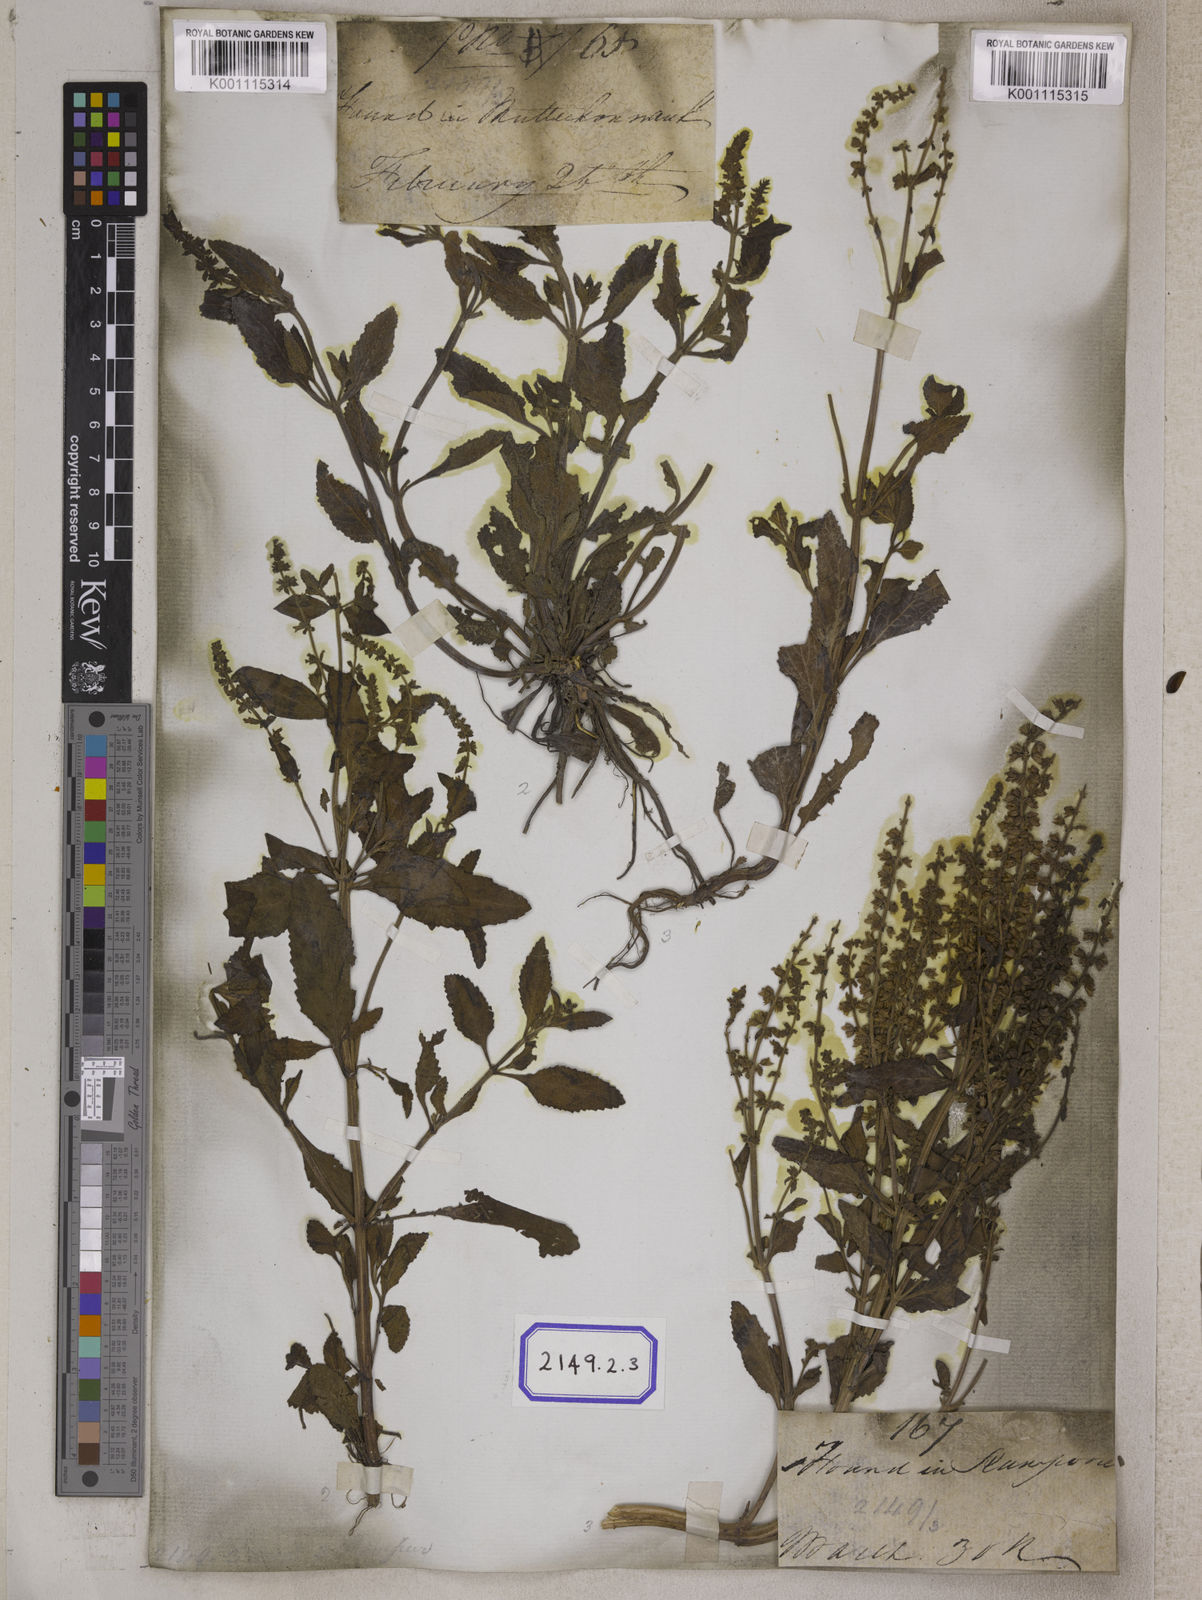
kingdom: Plantae
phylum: Tracheophyta
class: Magnoliopsida
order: Lamiales
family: Lamiaceae
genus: Salvia
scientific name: Salvia plebeia
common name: Australian sage
